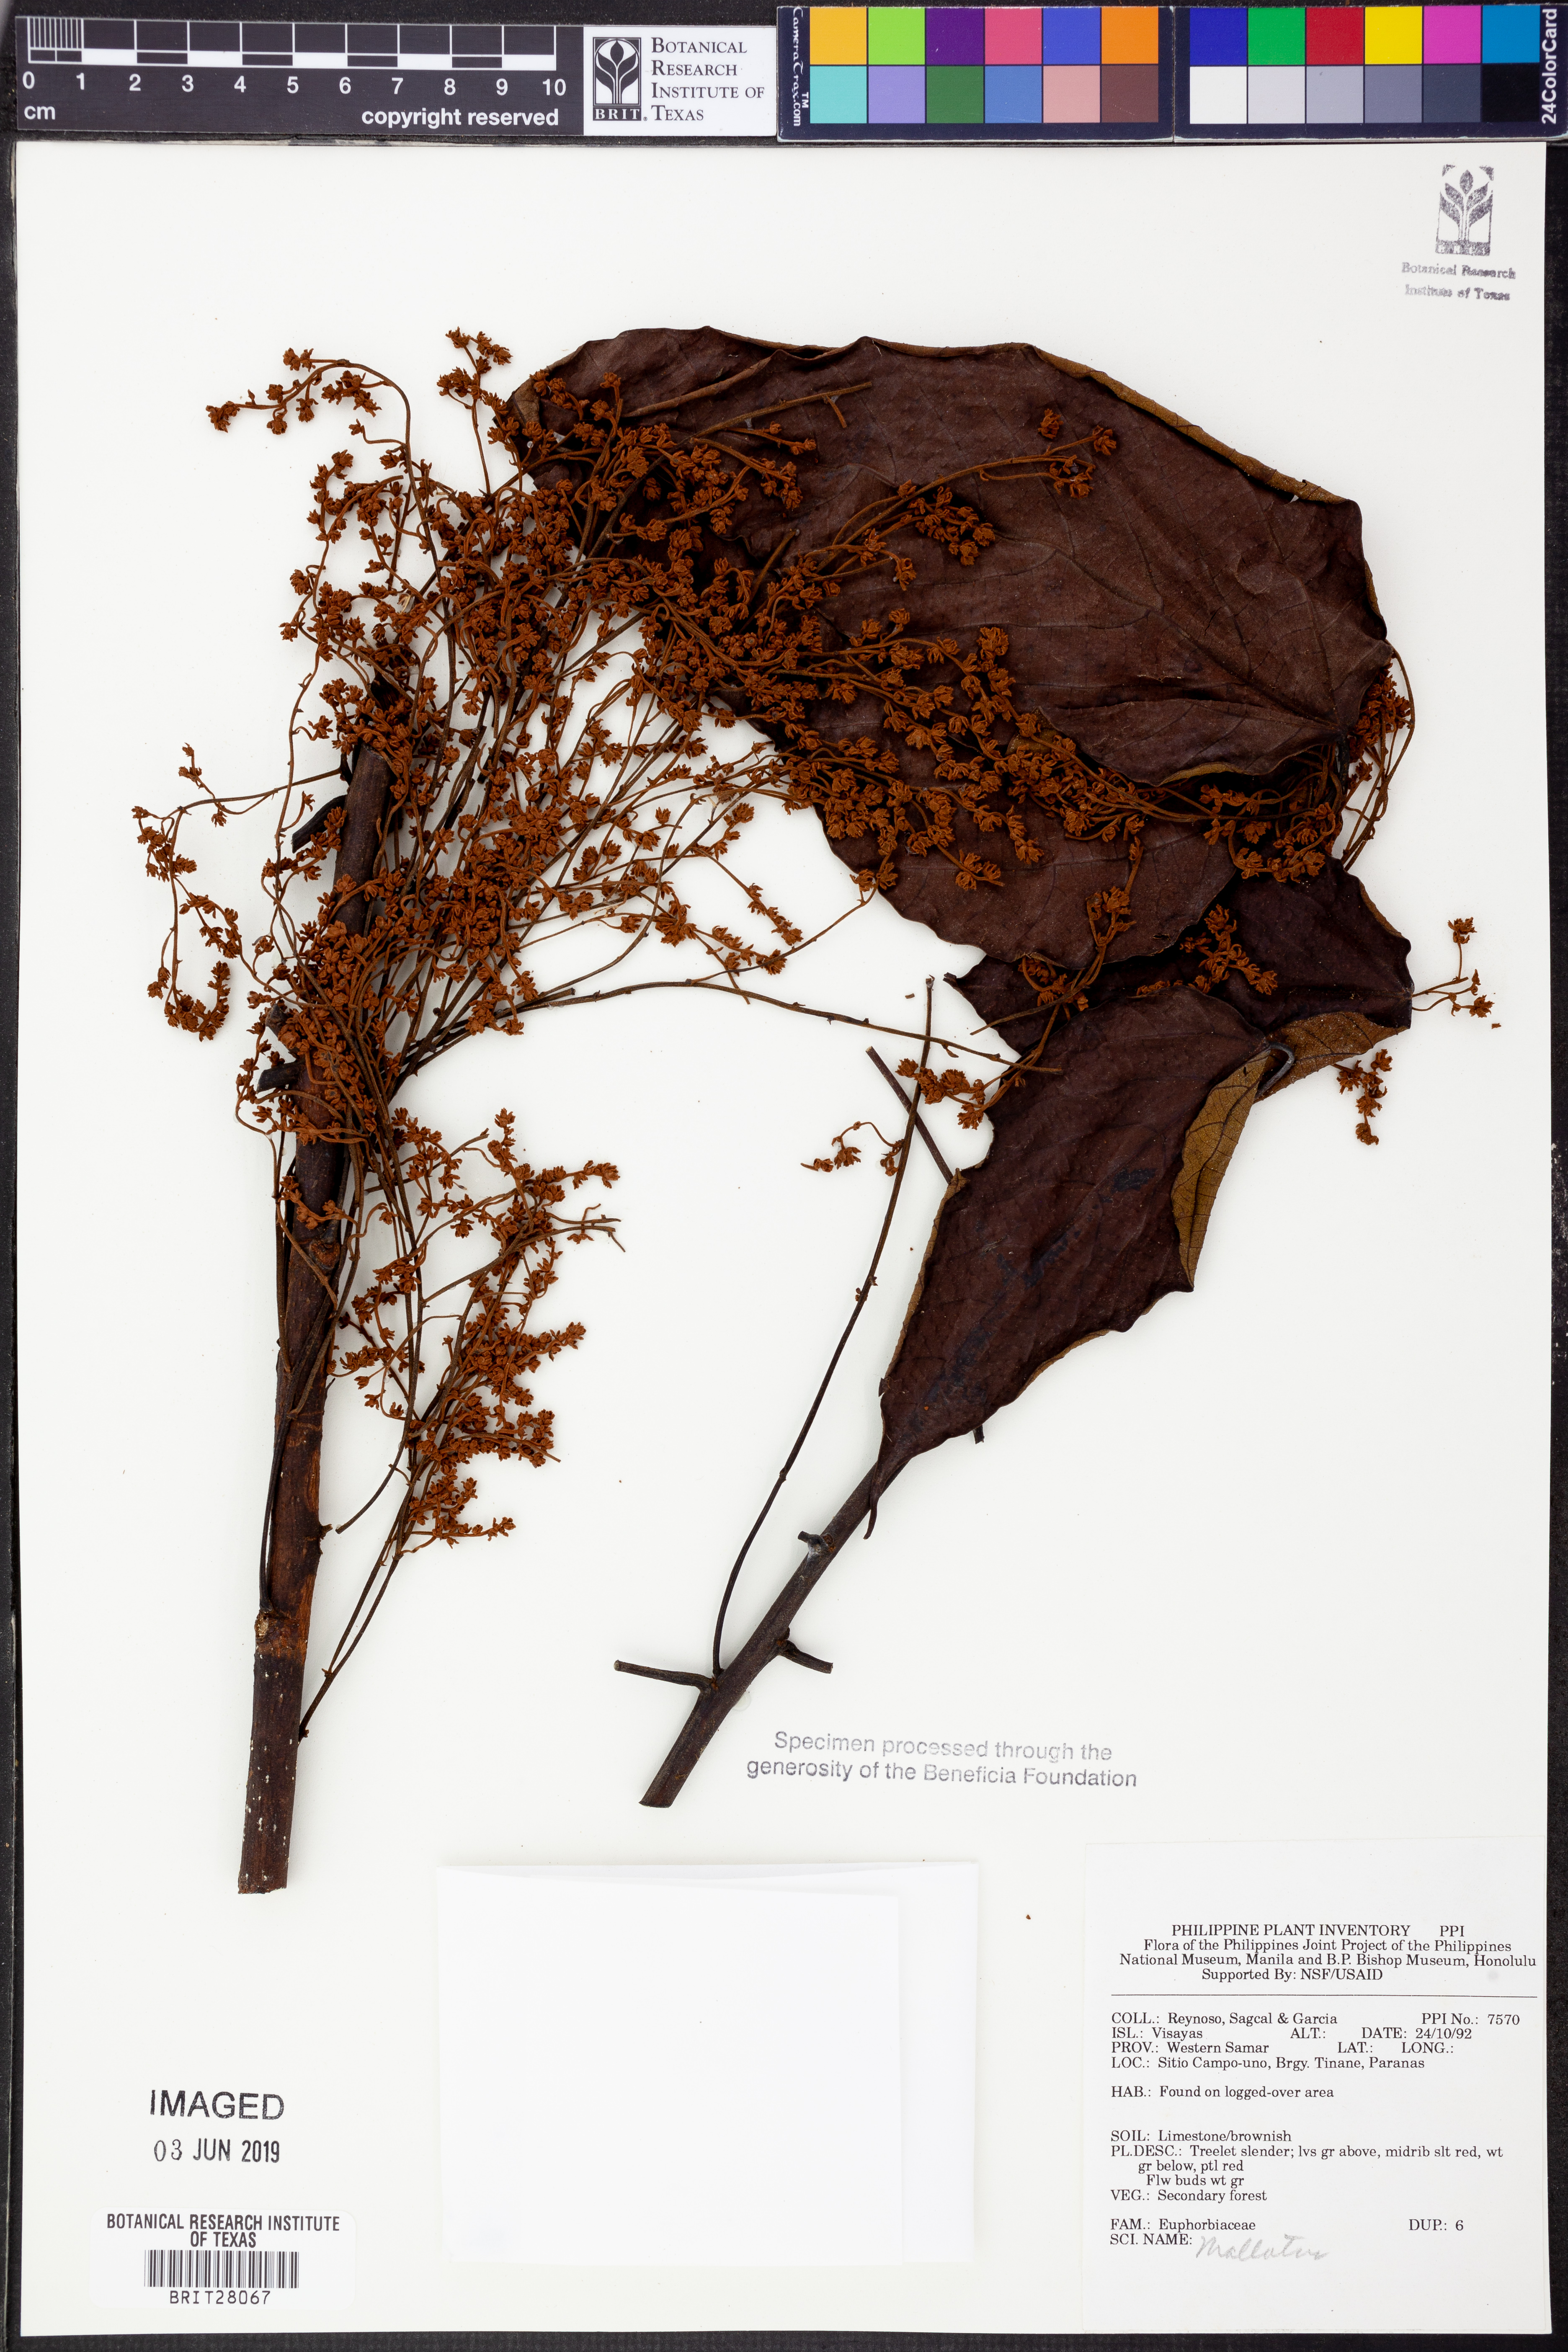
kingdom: Plantae
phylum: Tracheophyta
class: Magnoliopsida
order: Malpighiales
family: Euphorbiaceae
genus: Mallotus
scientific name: Mallotus
